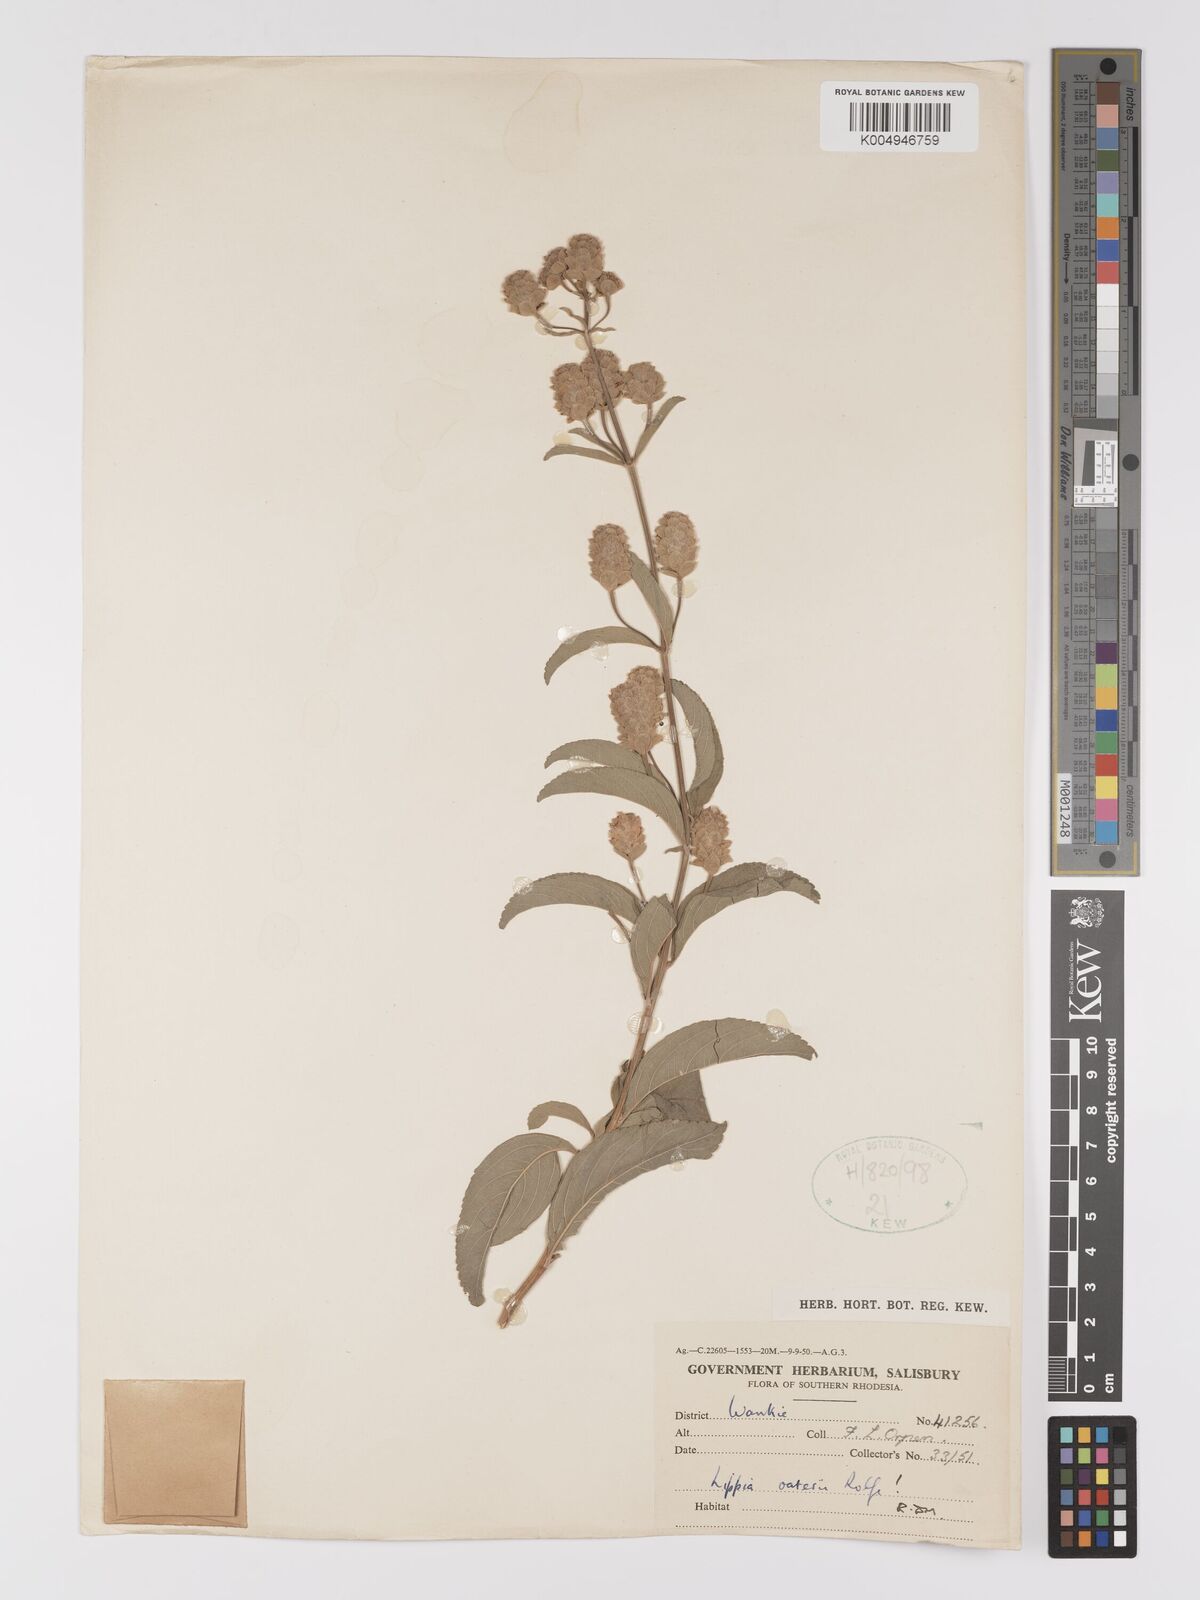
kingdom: Plantae
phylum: Tracheophyta
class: Magnoliopsida
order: Lamiales
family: Verbenaceae
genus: Lippia
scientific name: Lippia oatesii
